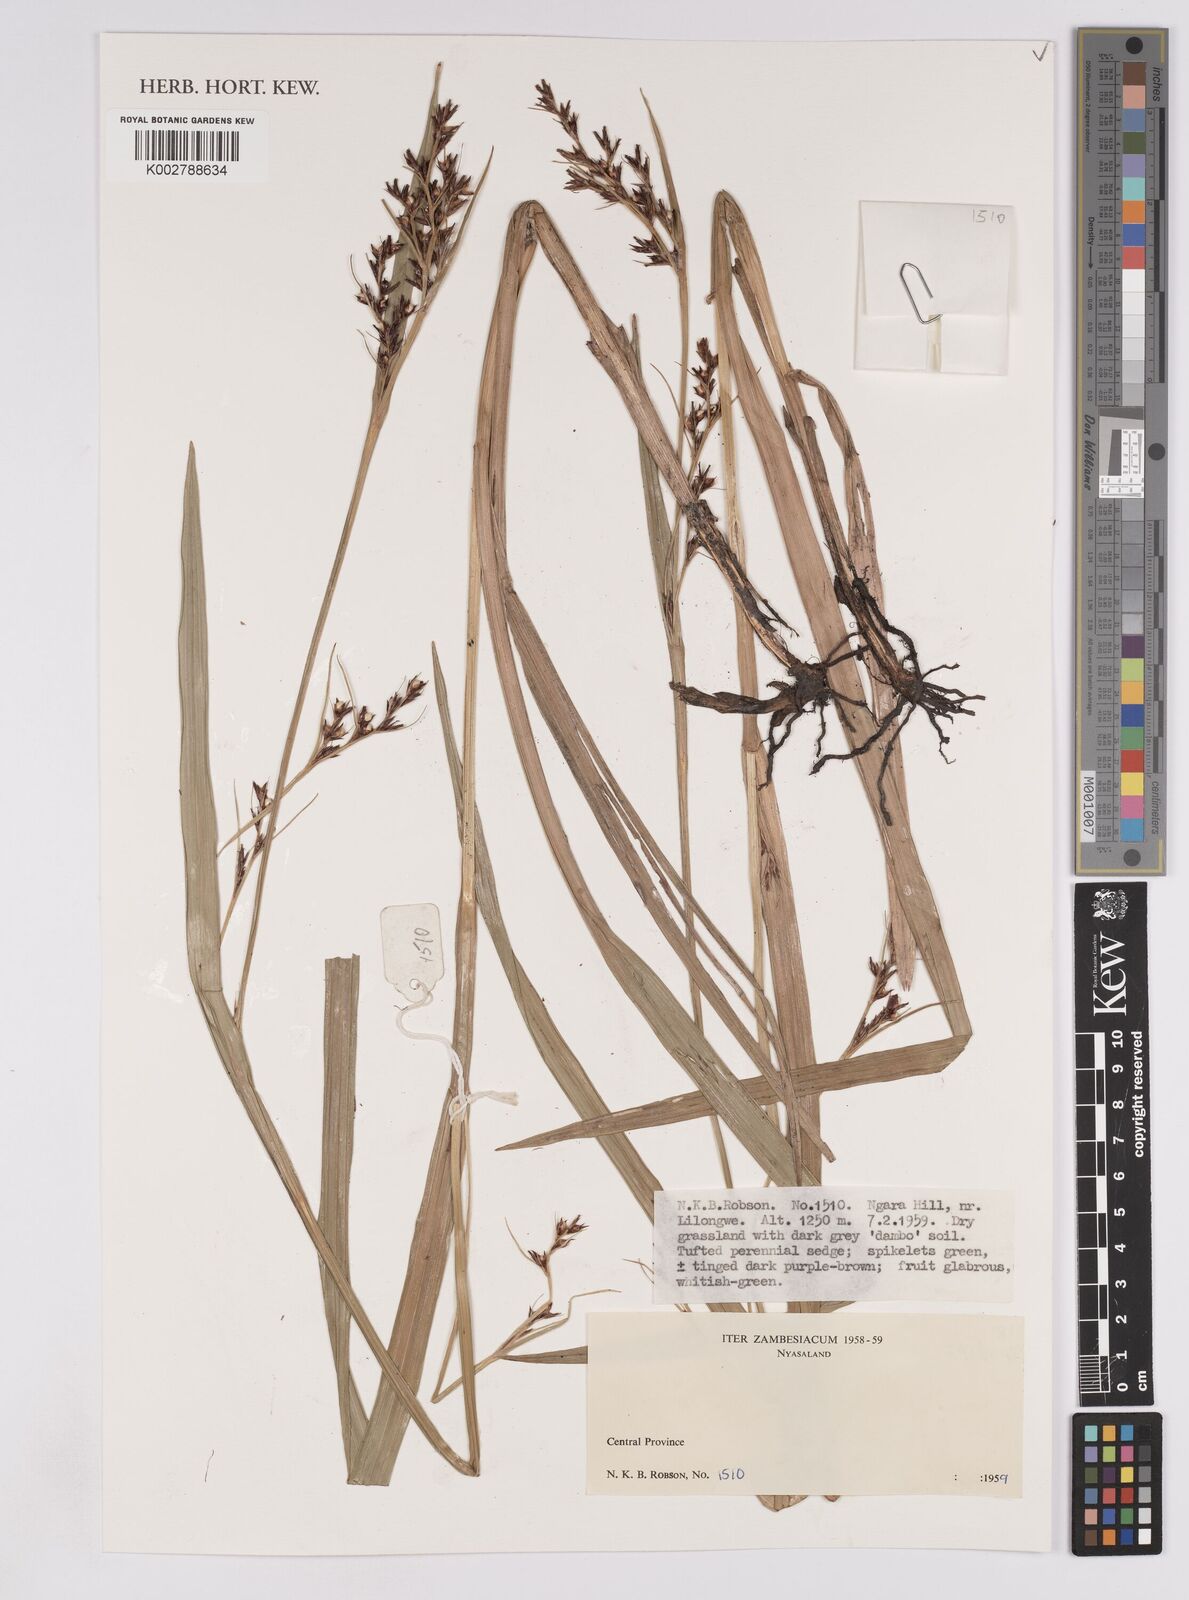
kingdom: Plantae
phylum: Tracheophyta
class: Liliopsida
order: Poales
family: Cyperaceae
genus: Scleria
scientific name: Scleria sobolifera
